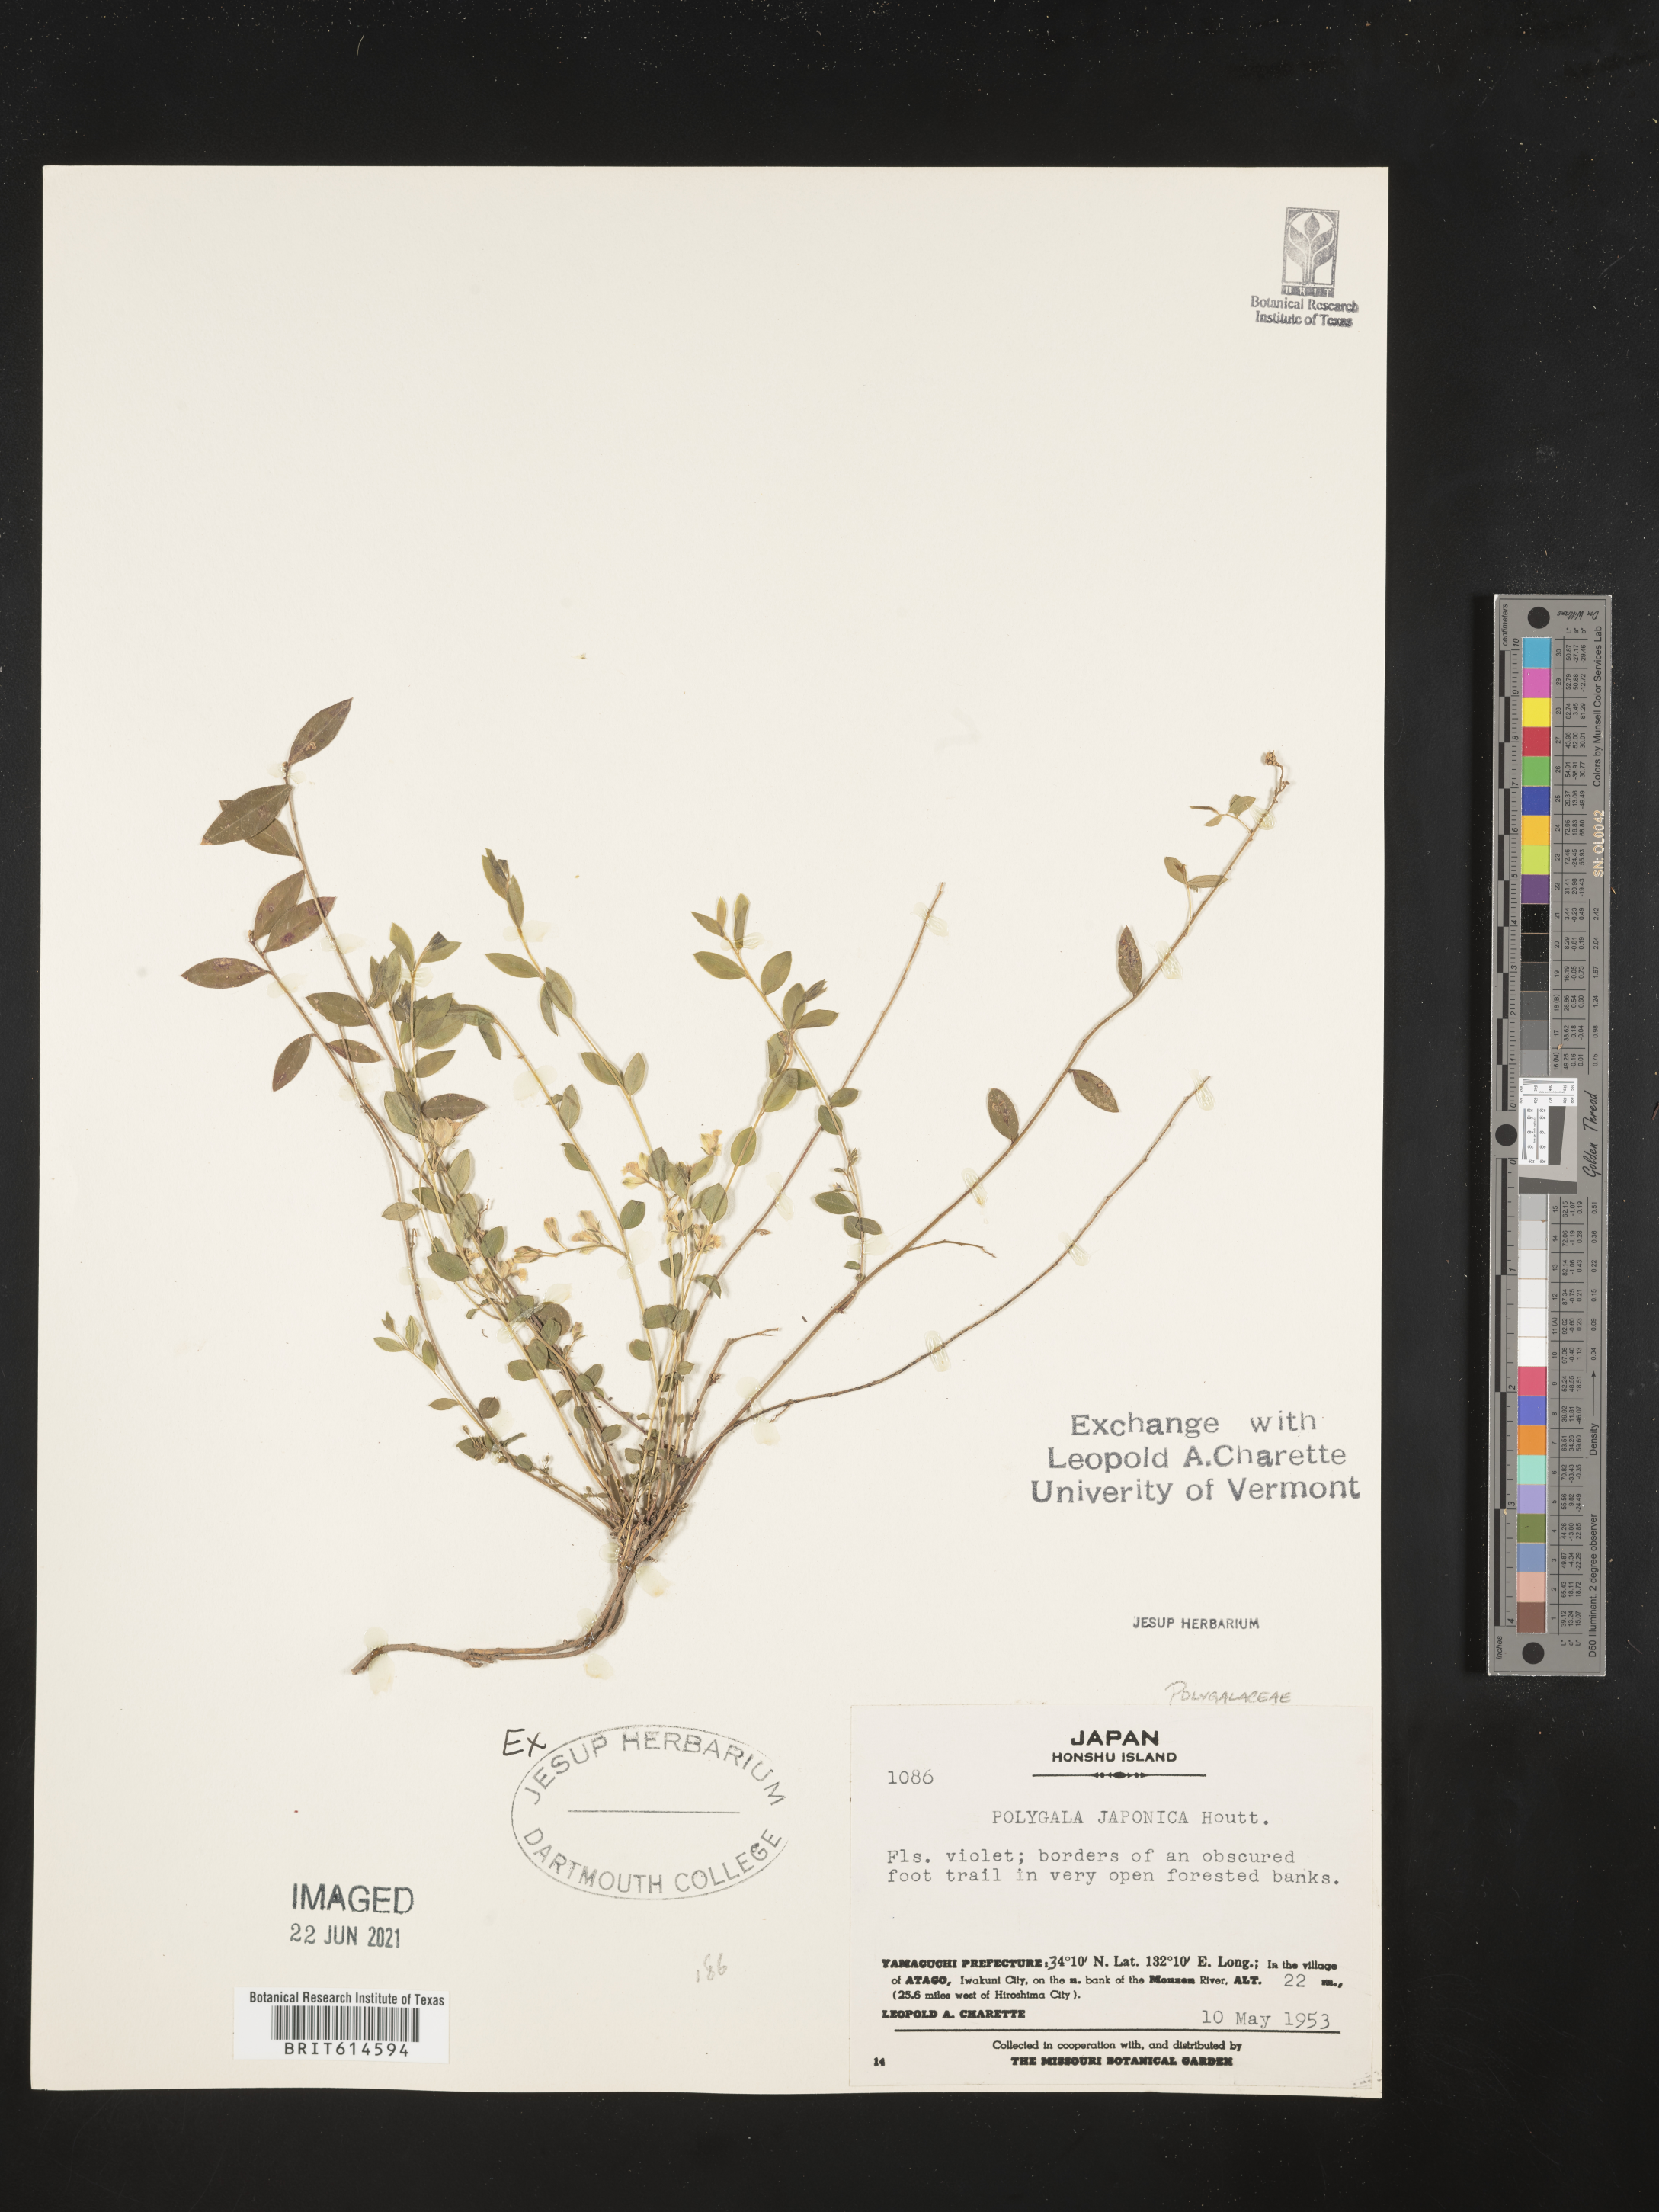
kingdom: Plantae
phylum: Tracheophyta
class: Magnoliopsida
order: Fabales
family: Polygalaceae
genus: Polygala
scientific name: Polygala japonica
